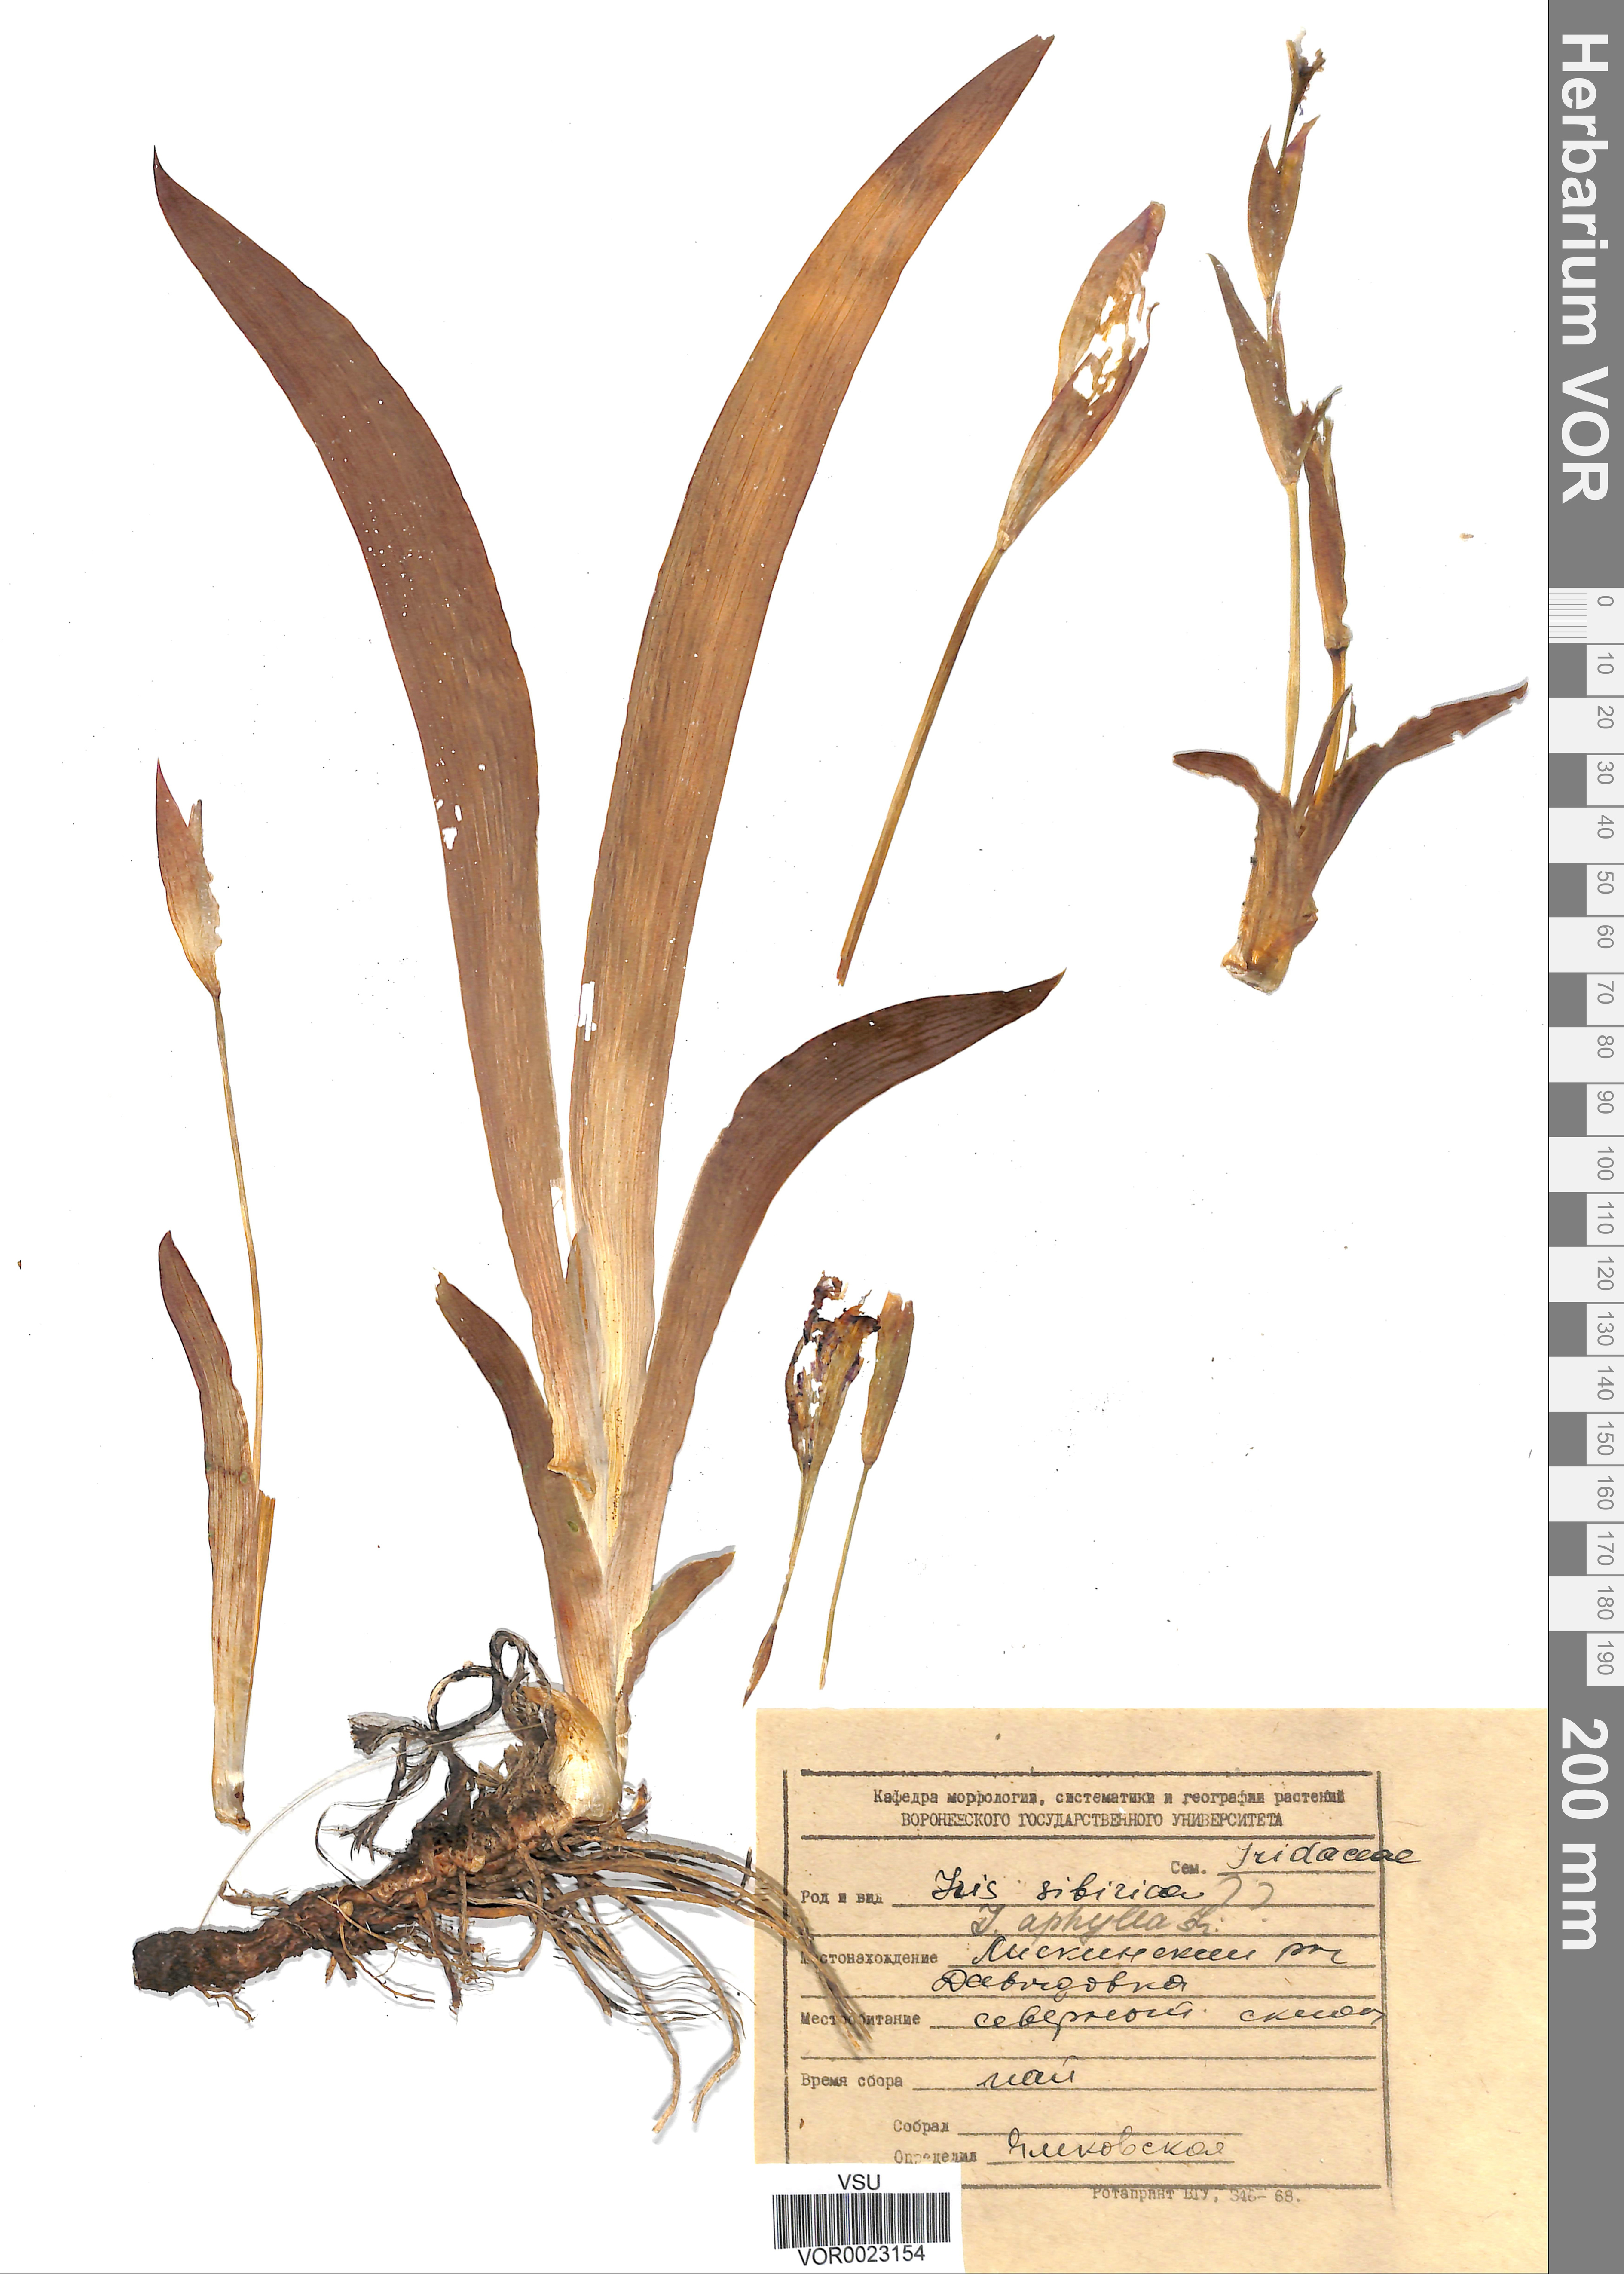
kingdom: Plantae
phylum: Tracheophyta
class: Liliopsida
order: Asparagales
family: Iridaceae
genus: Iris
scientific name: Iris aphylla
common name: Stool iris
